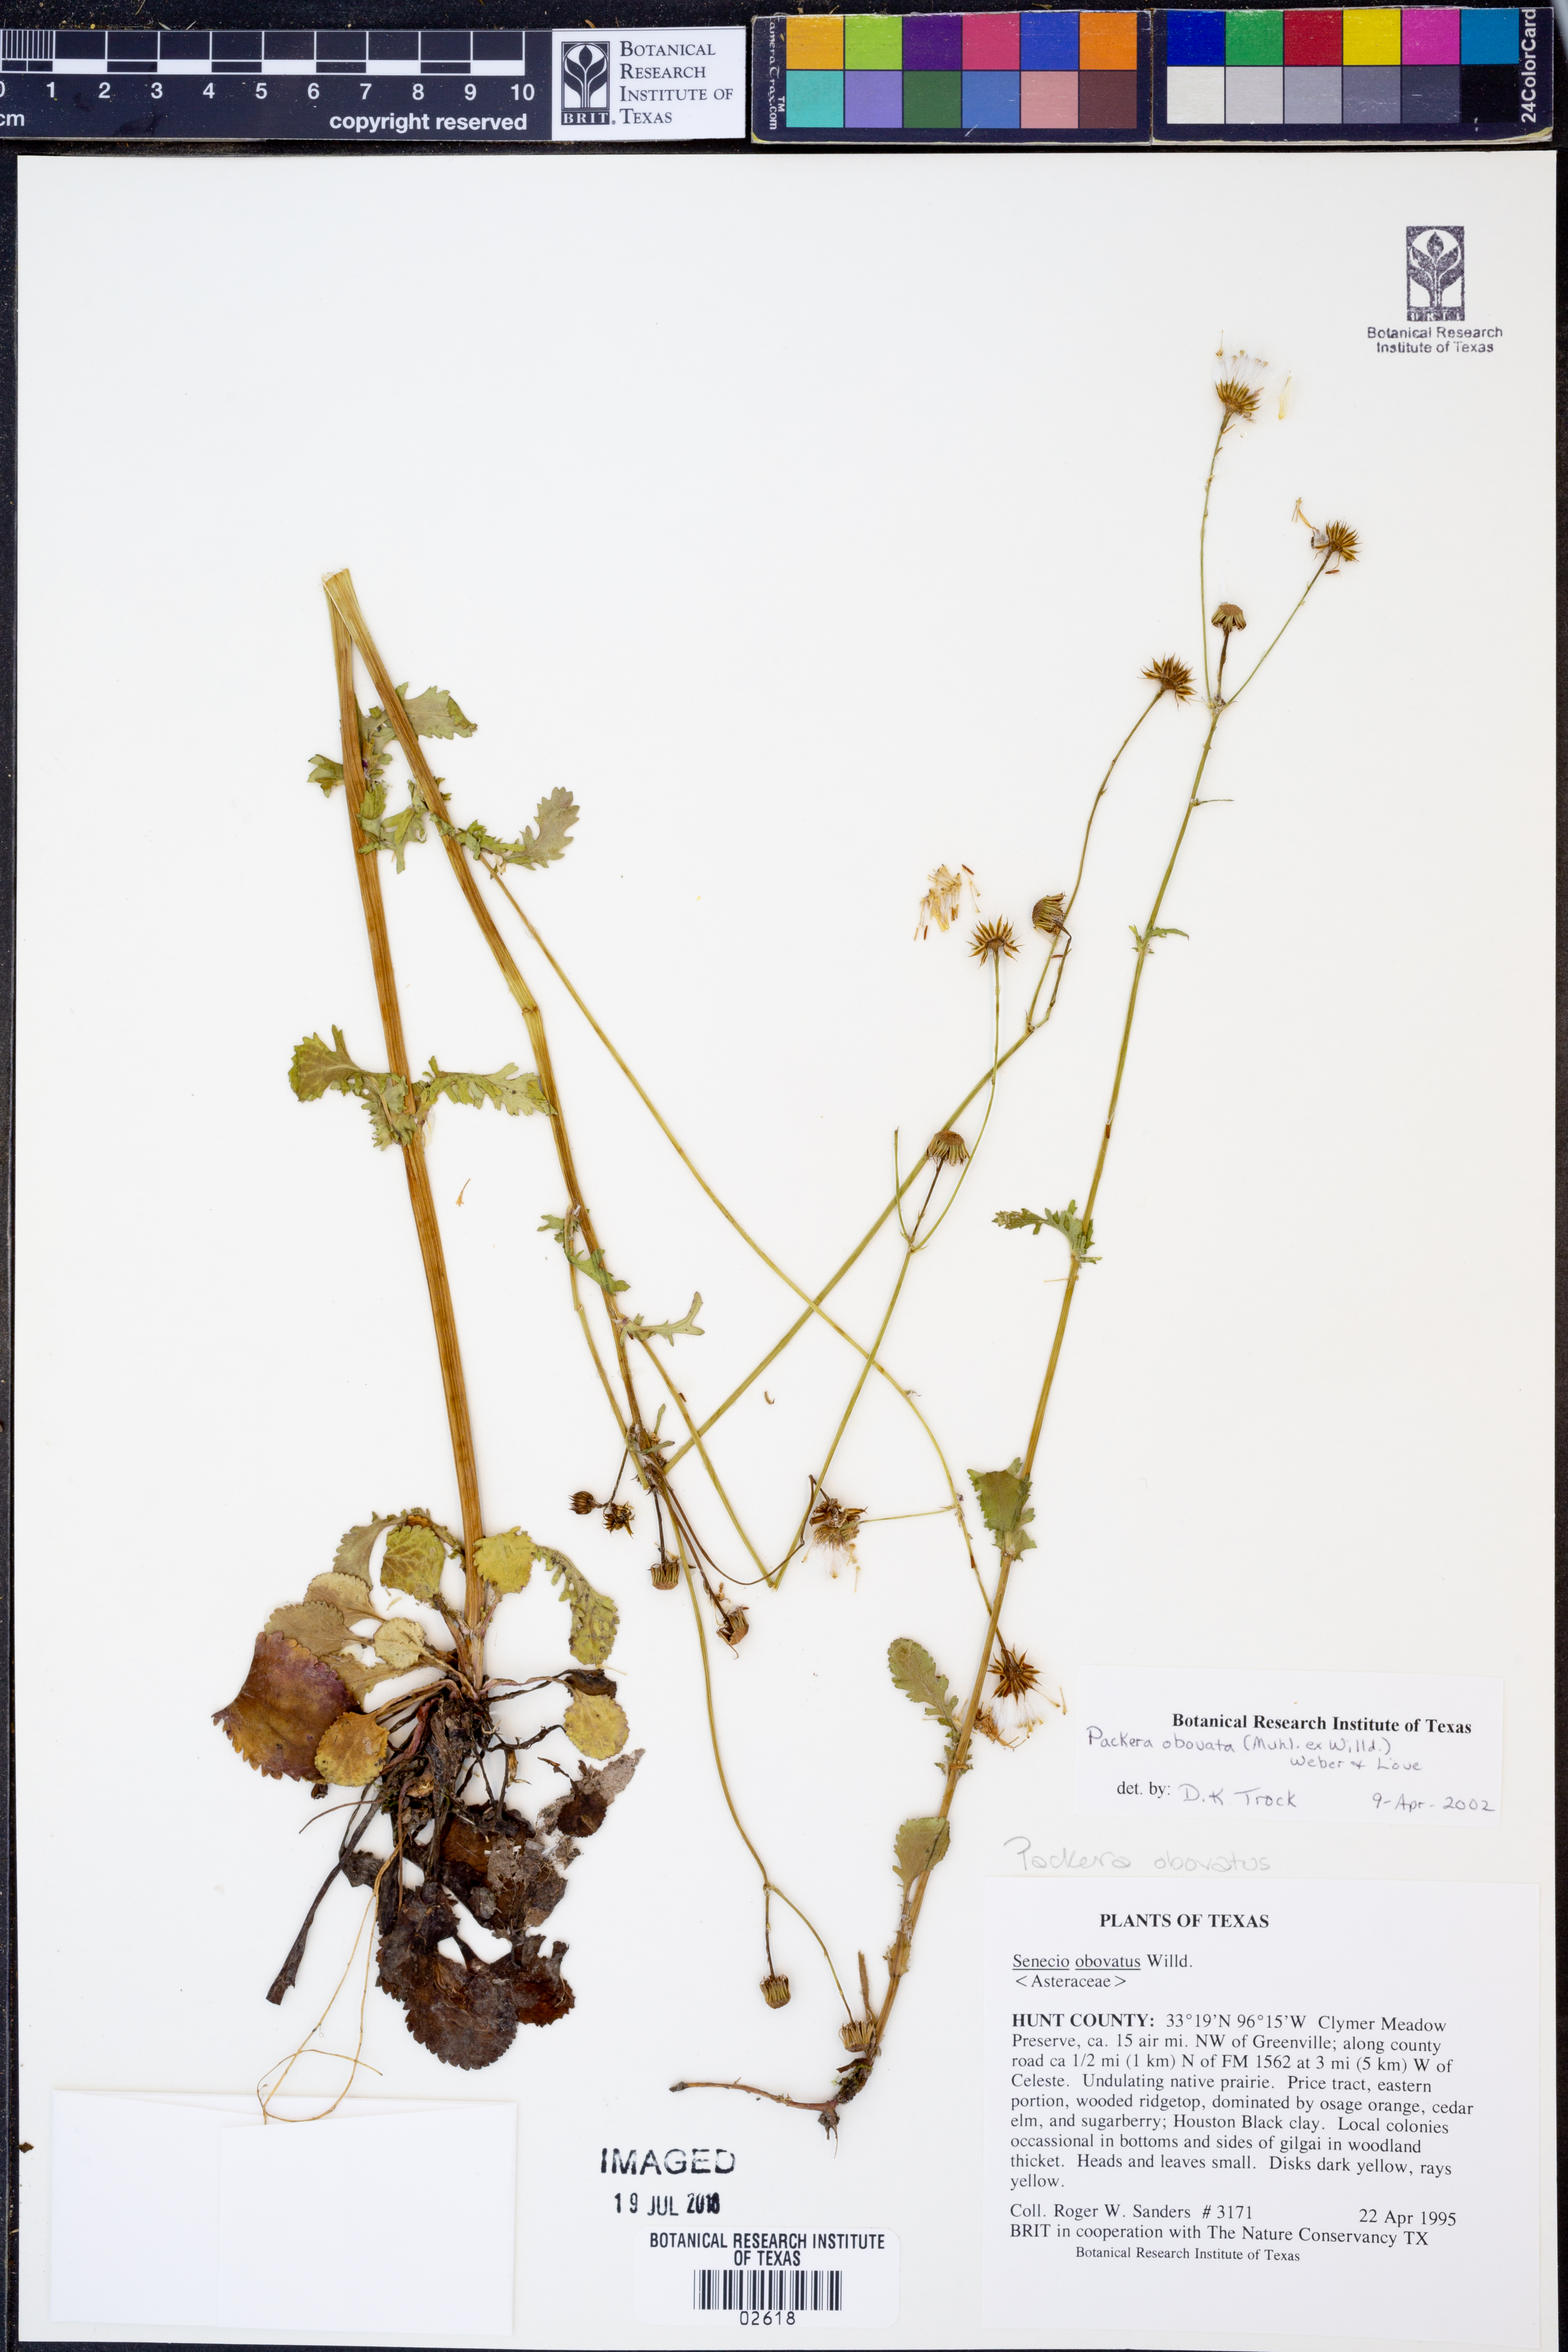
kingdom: Plantae
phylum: Tracheophyta
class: Magnoliopsida
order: Asterales
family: Asteraceae
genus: Packera
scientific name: Packera obovata
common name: Round-leaf ragwort
